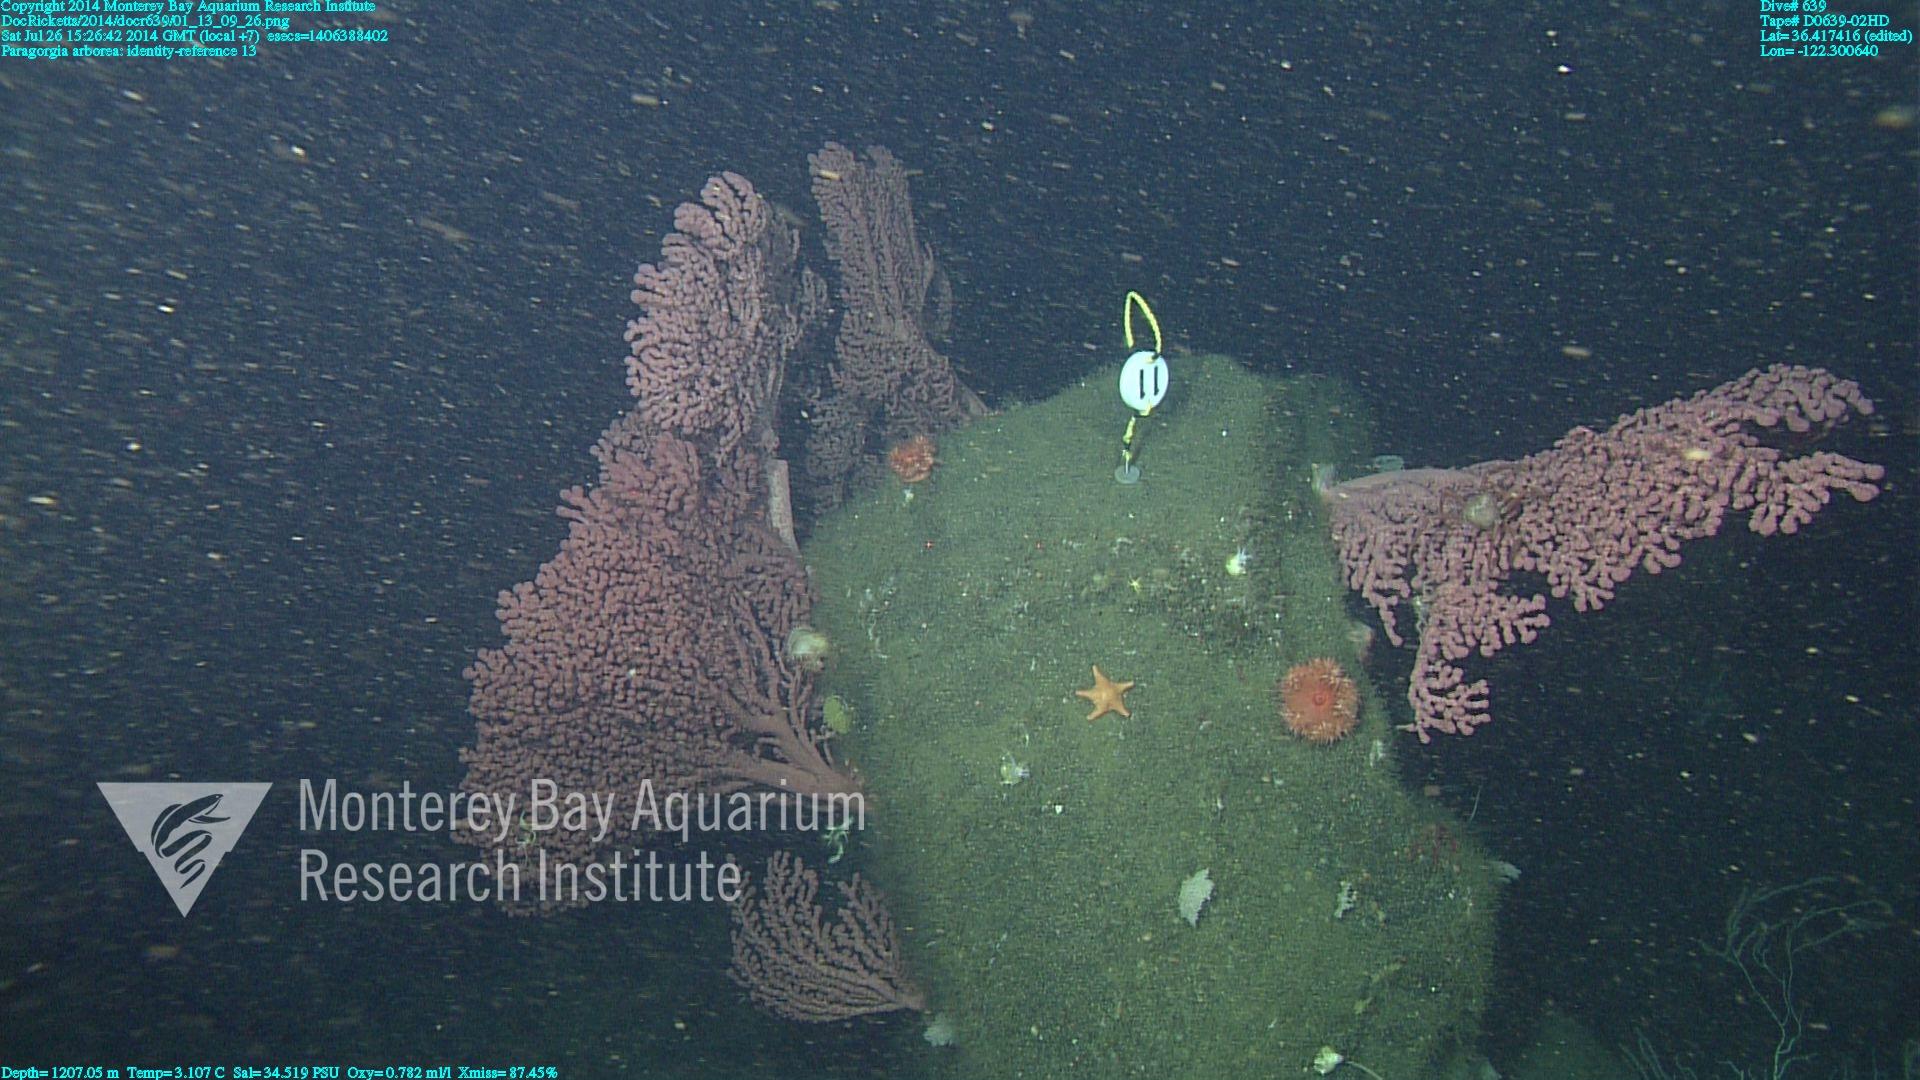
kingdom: Animalia
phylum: Cnidaria
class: Anthozoa
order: Scleralcyonacea
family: Coralliidae
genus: Paragorgia
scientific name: Paragorgia arborea
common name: Bubble gum coral
